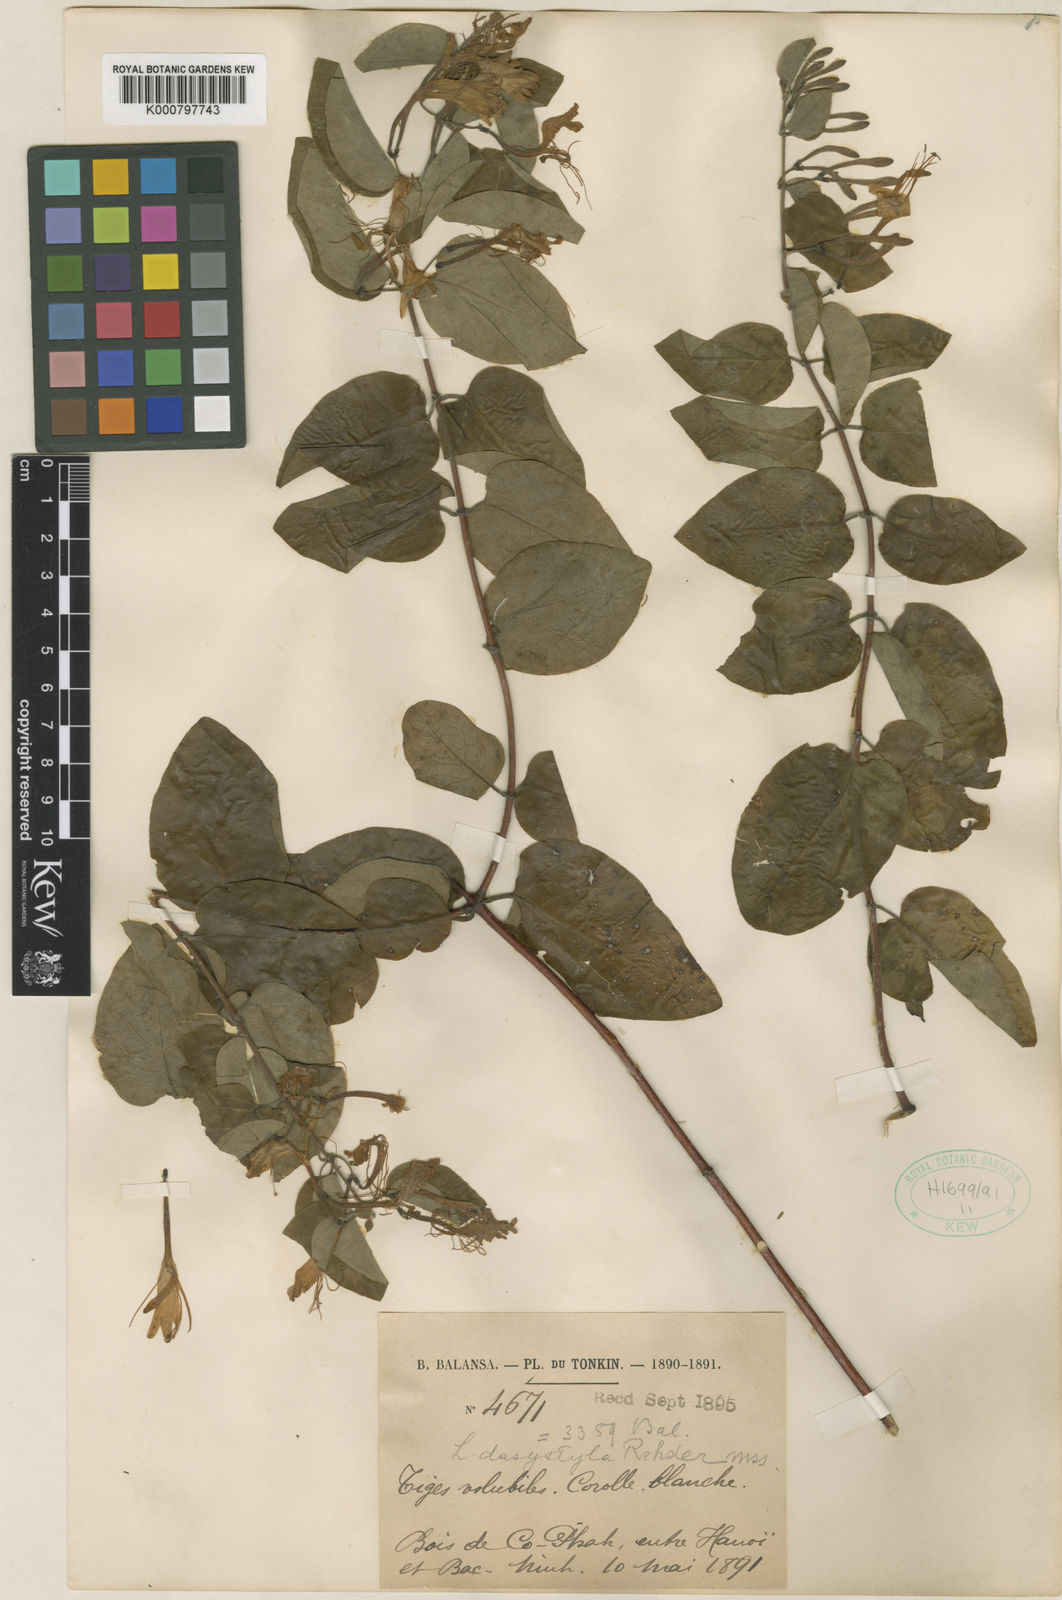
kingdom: Plantae
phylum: Tracheophyta
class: Magnoliopsida
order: Dipsacales
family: Caprifoliaceae
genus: Lonicera
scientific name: Lonicera confusa
